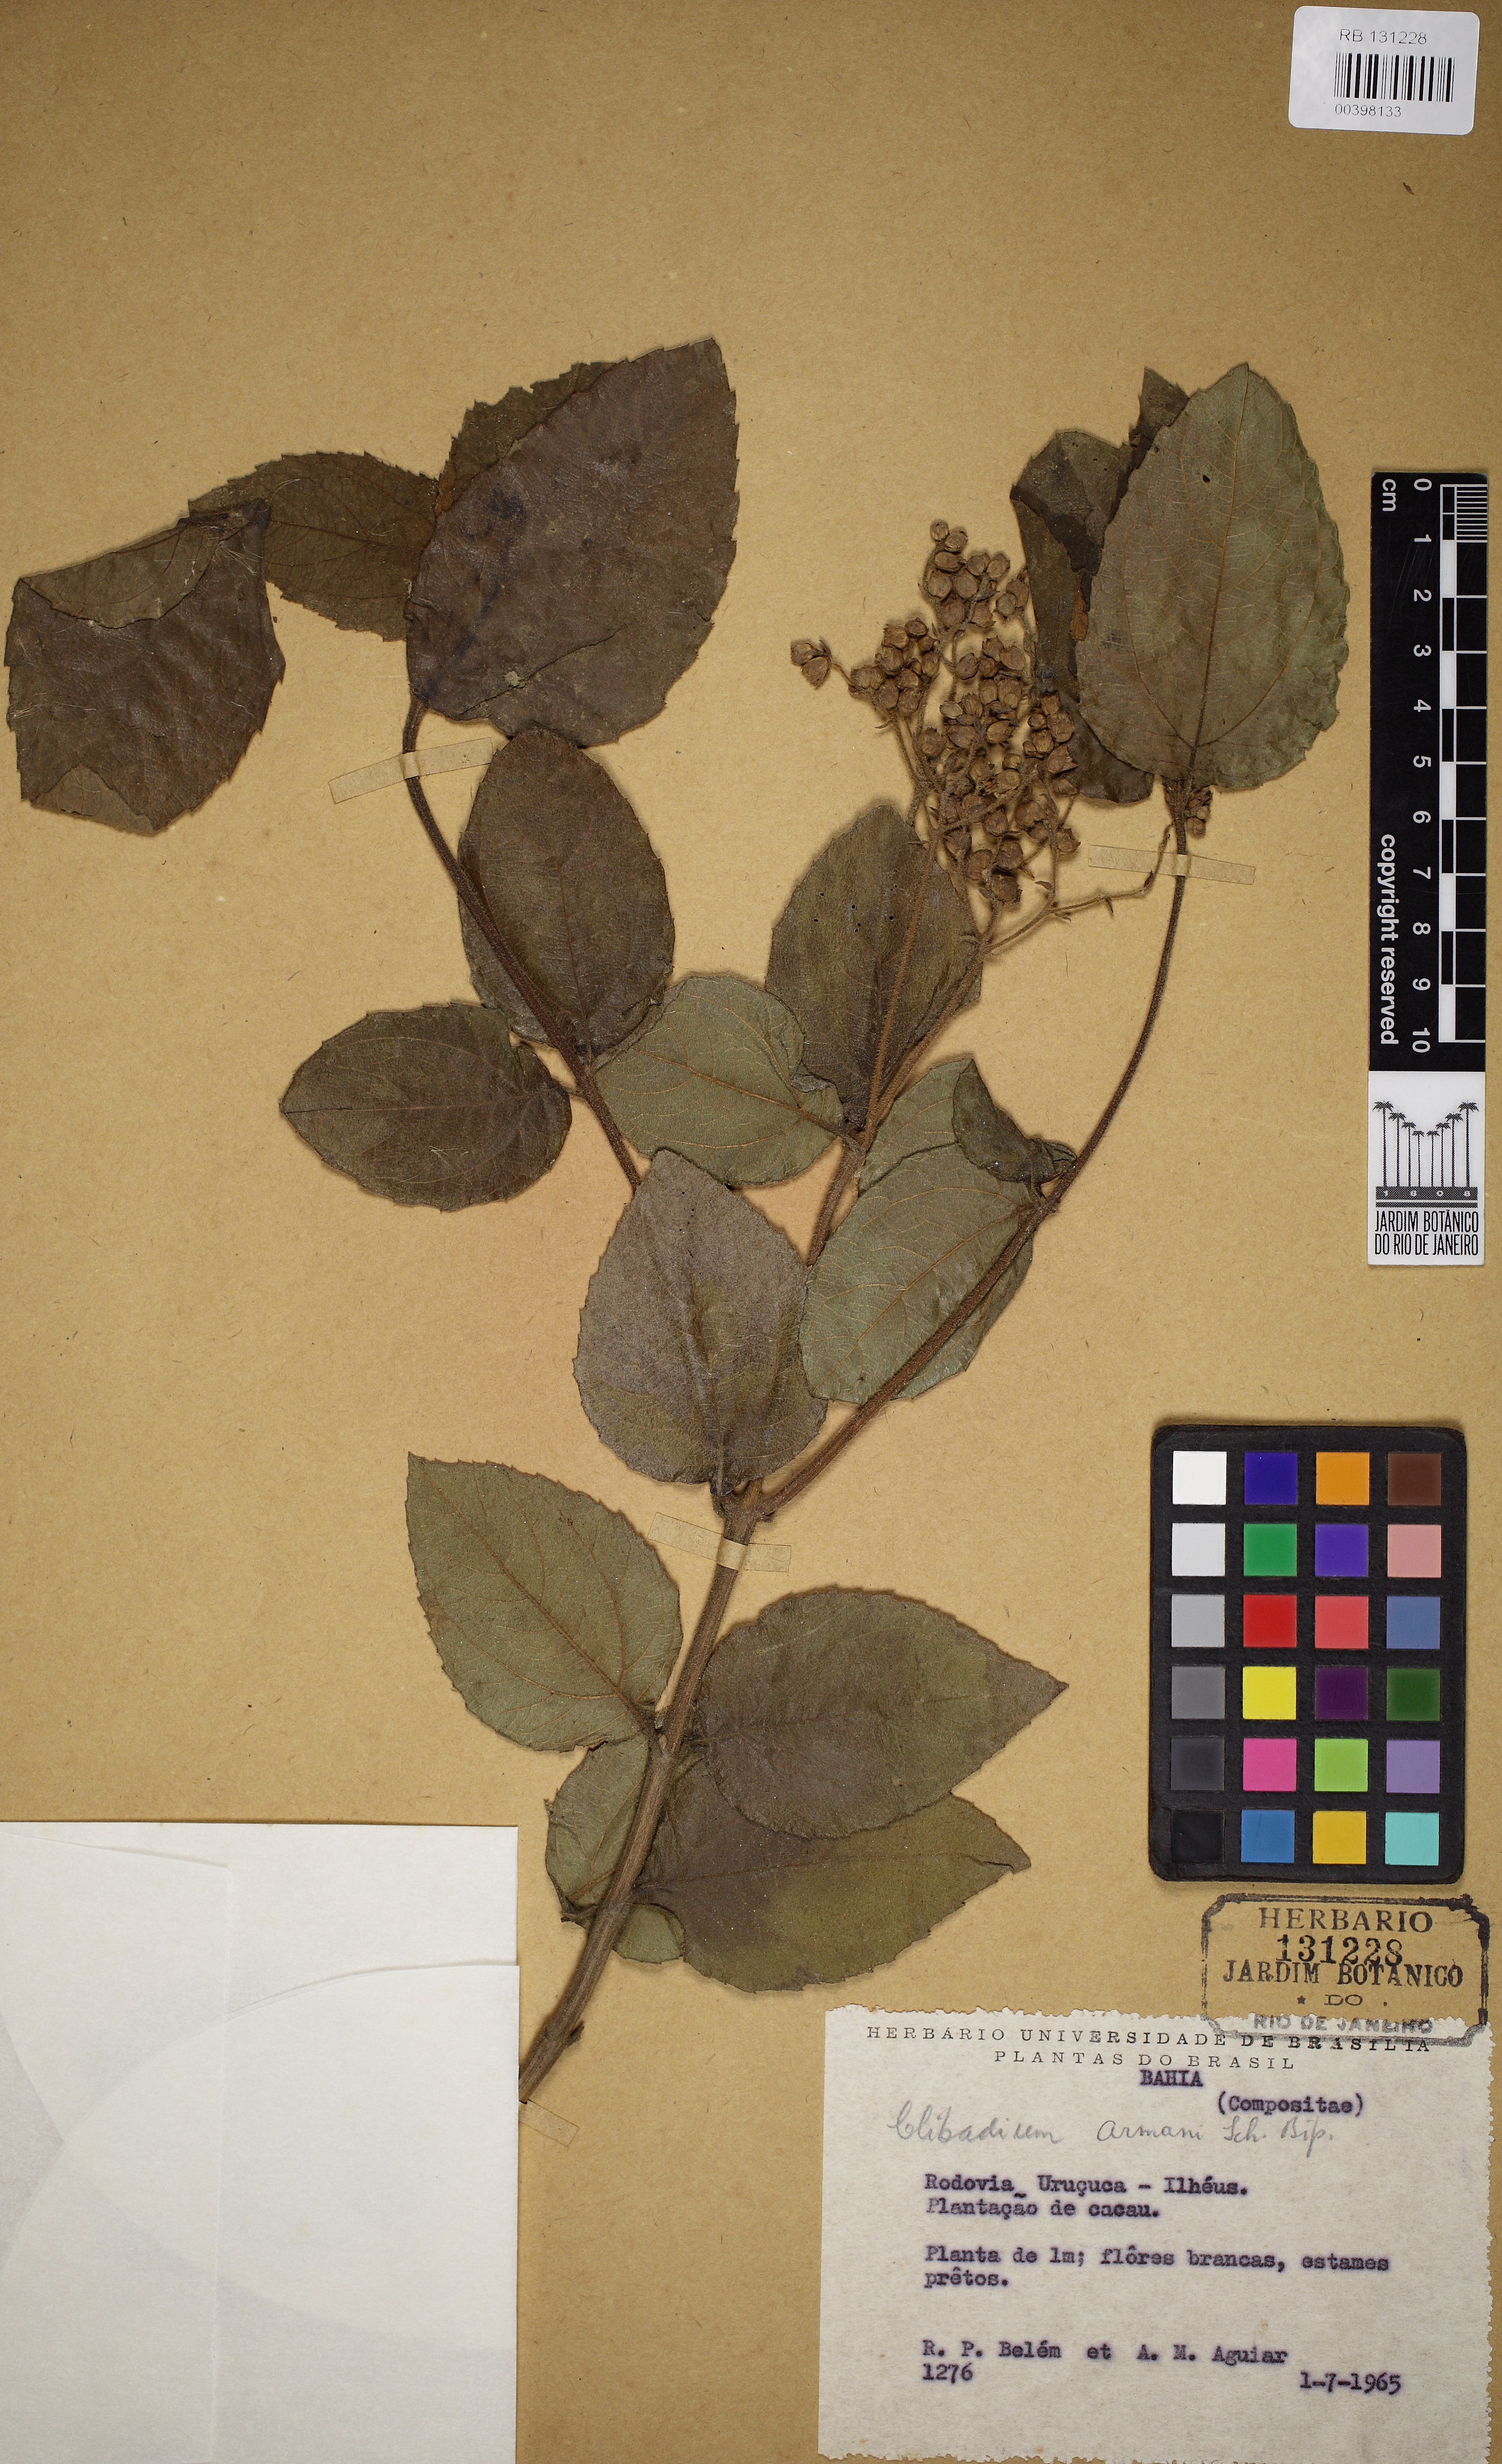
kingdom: Plantae
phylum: Tracheophyta
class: Magnoliopsida
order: Asterales
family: Asteraceae
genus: Clibadium
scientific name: Clibadium armanii
